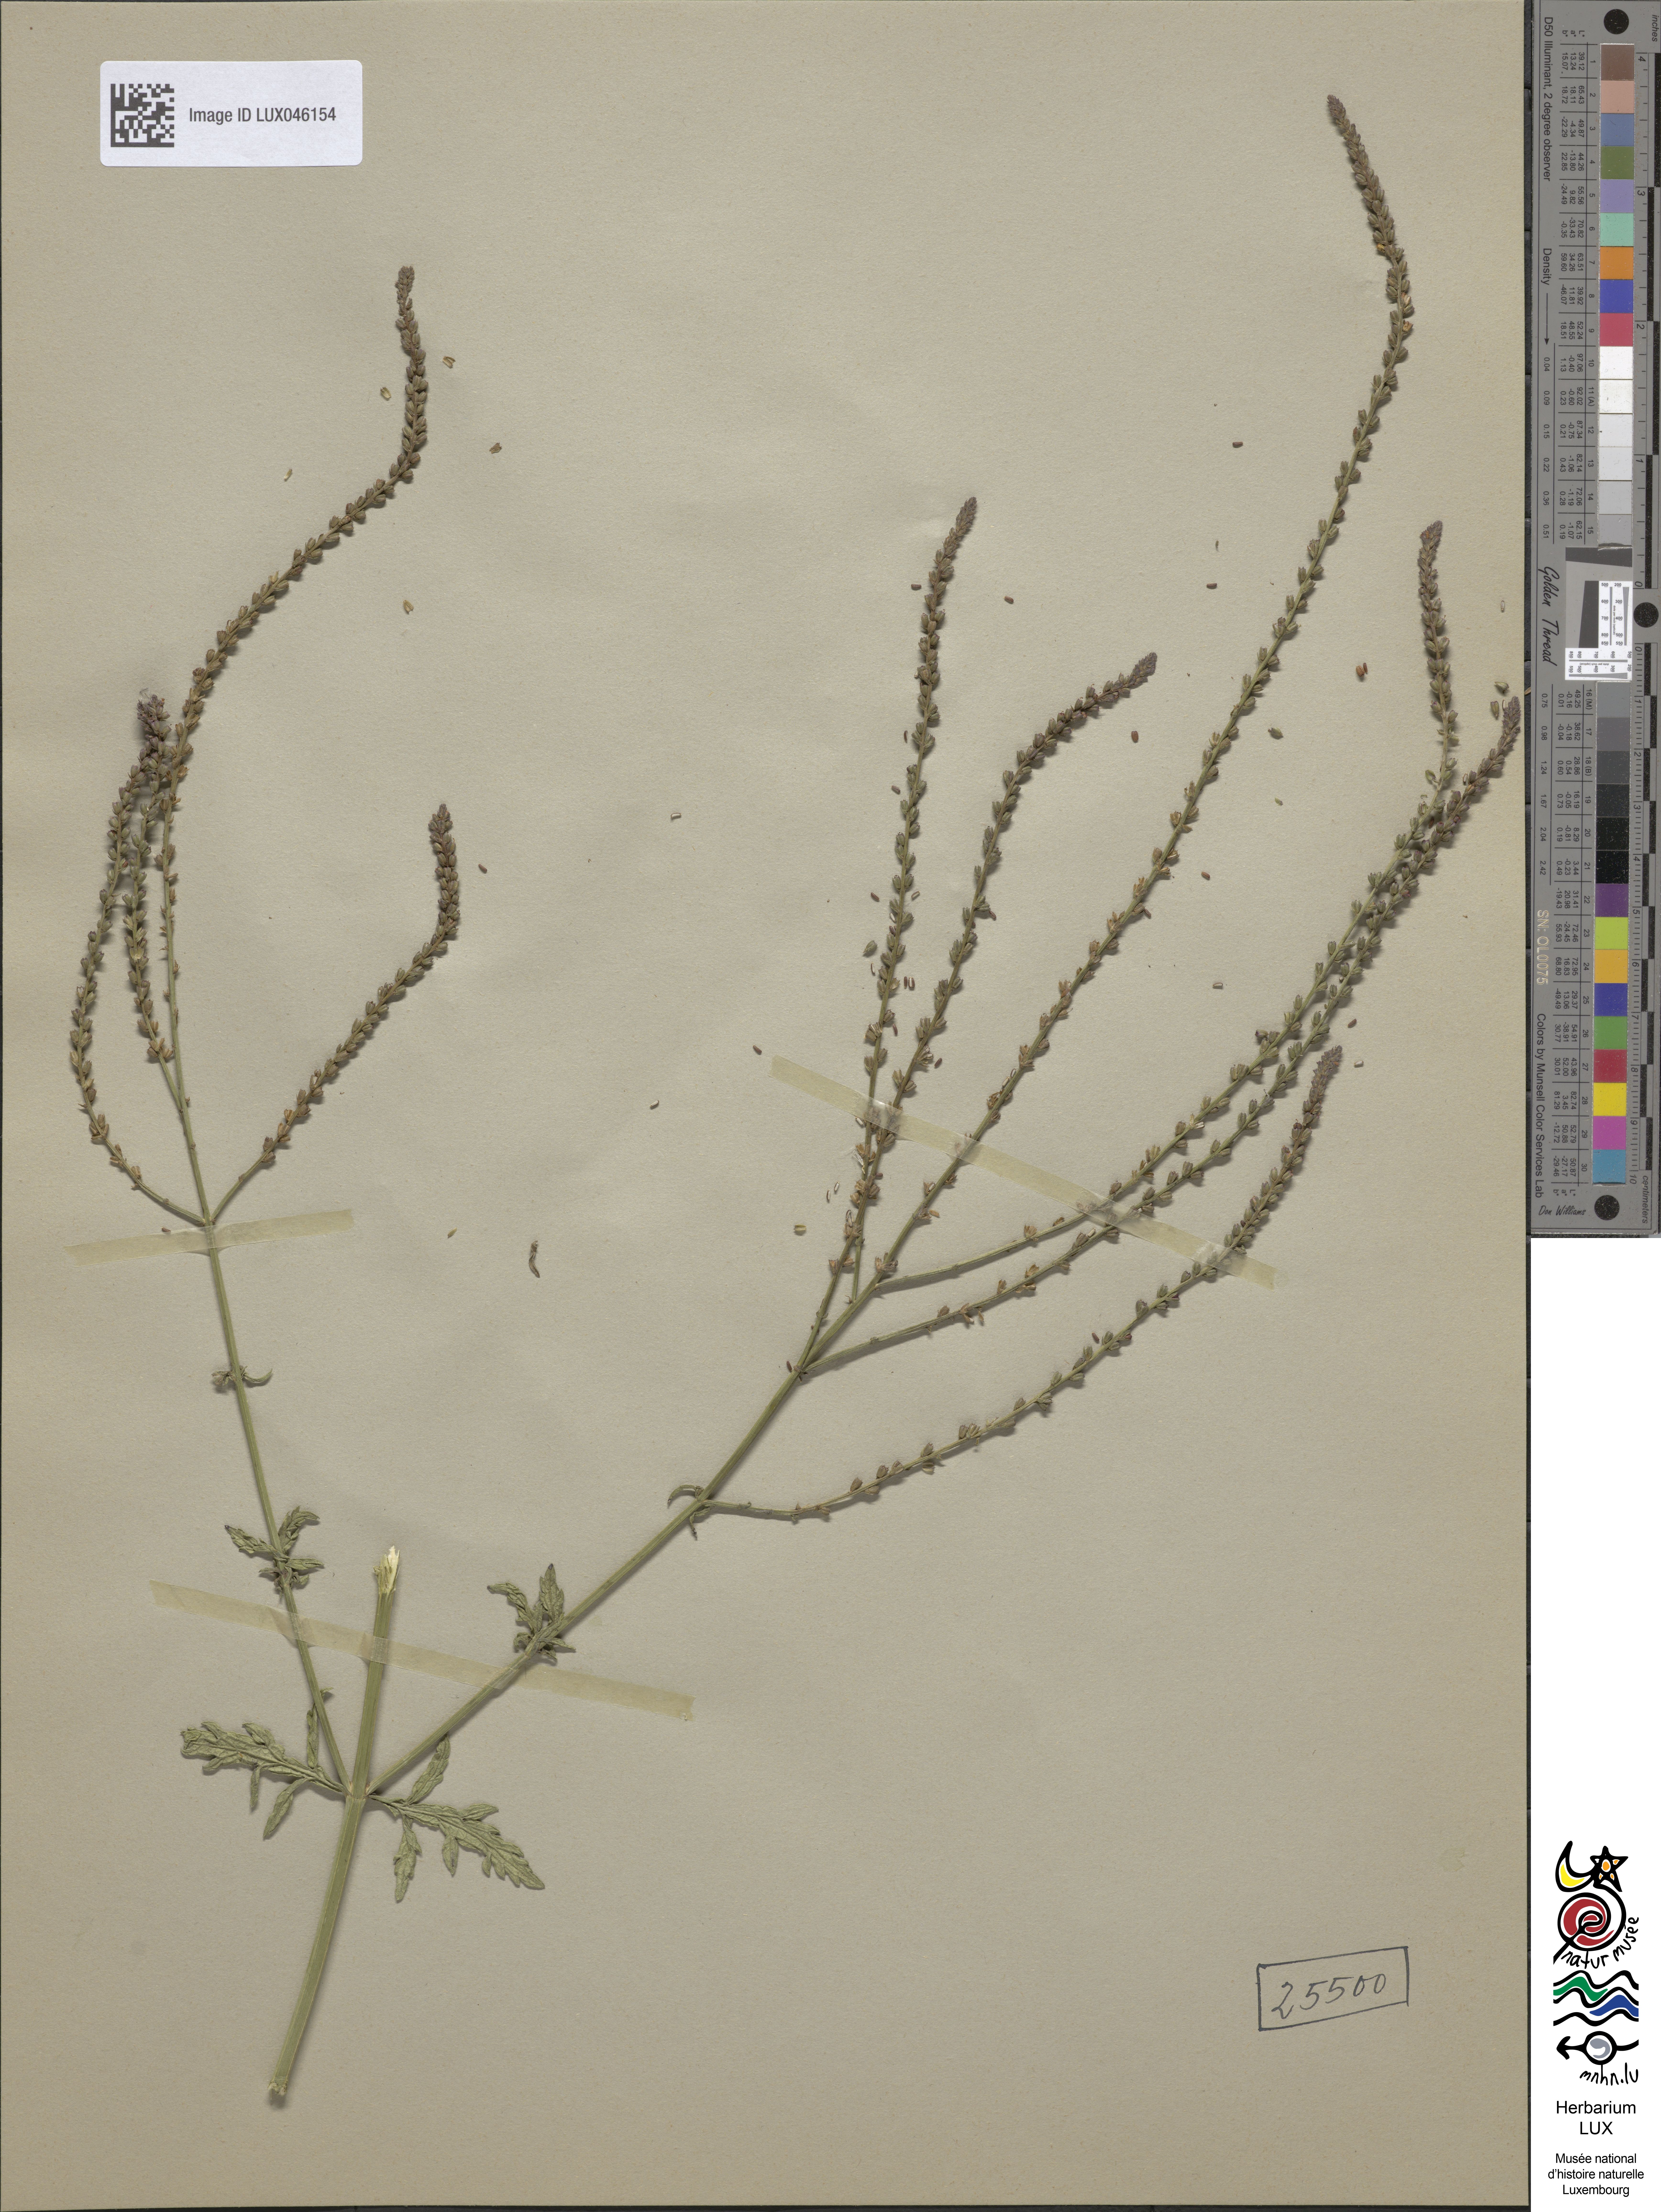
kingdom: Plantae
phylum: Tracheophyta
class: Magnoliopsida
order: Lamiales
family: Verbenaceae
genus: Verbena
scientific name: Verbena officinalis
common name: Vervain
